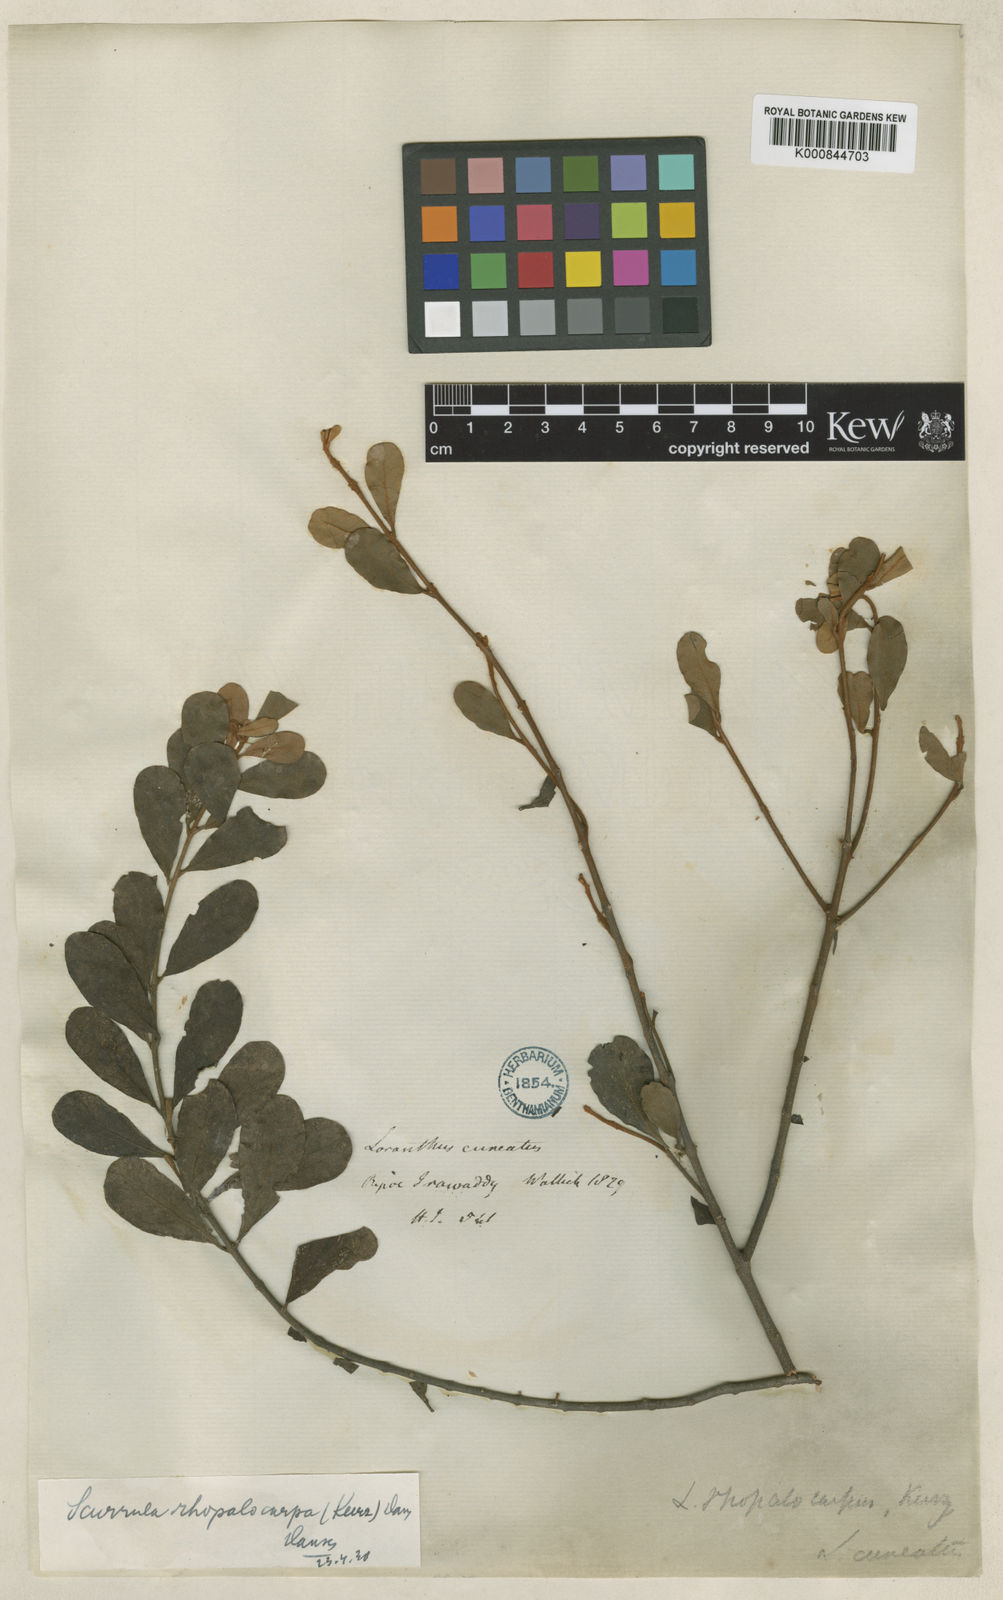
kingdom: Plantae
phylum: Tracheophyta
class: Magnoliopsida
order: Santalales
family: Loranthaceae
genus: Scurrula
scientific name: Scurrula rhopalocarpa
